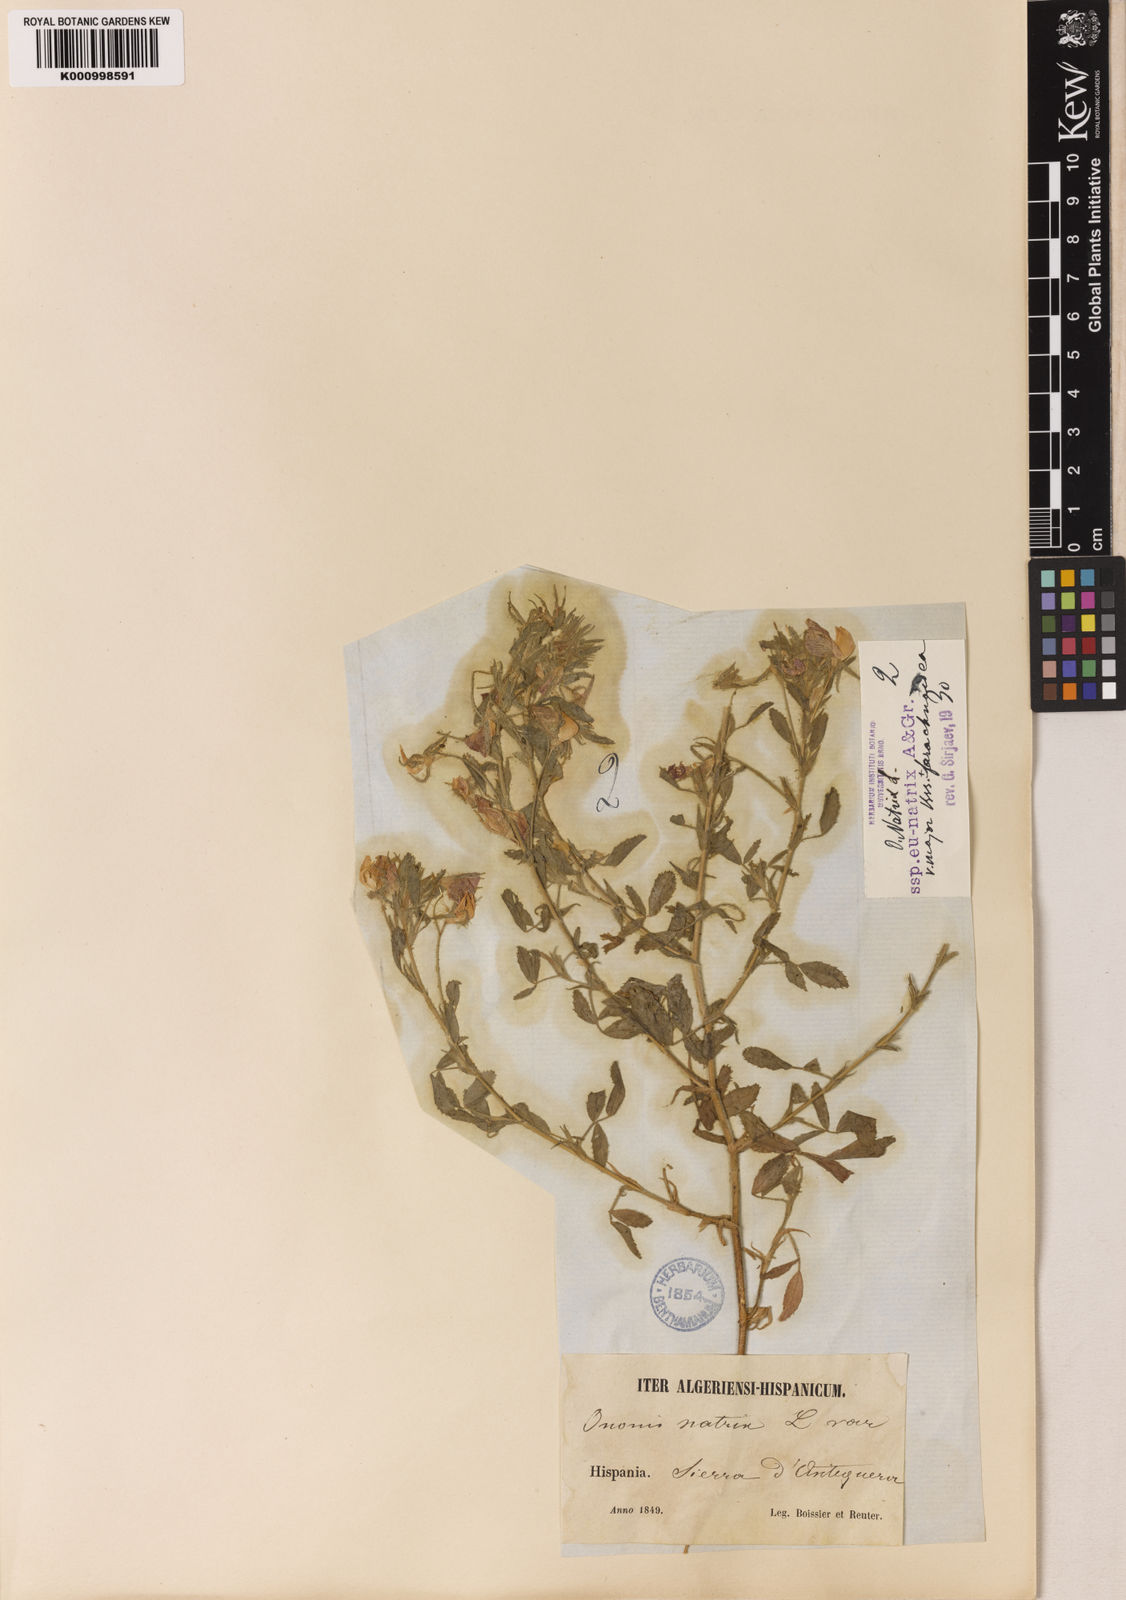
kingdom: Plantae
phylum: Tracheophyta
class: Magnoliopsida
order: Fabales
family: Fabaceae
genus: Ononis
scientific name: Ononis natrix
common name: Yellow restharrow
